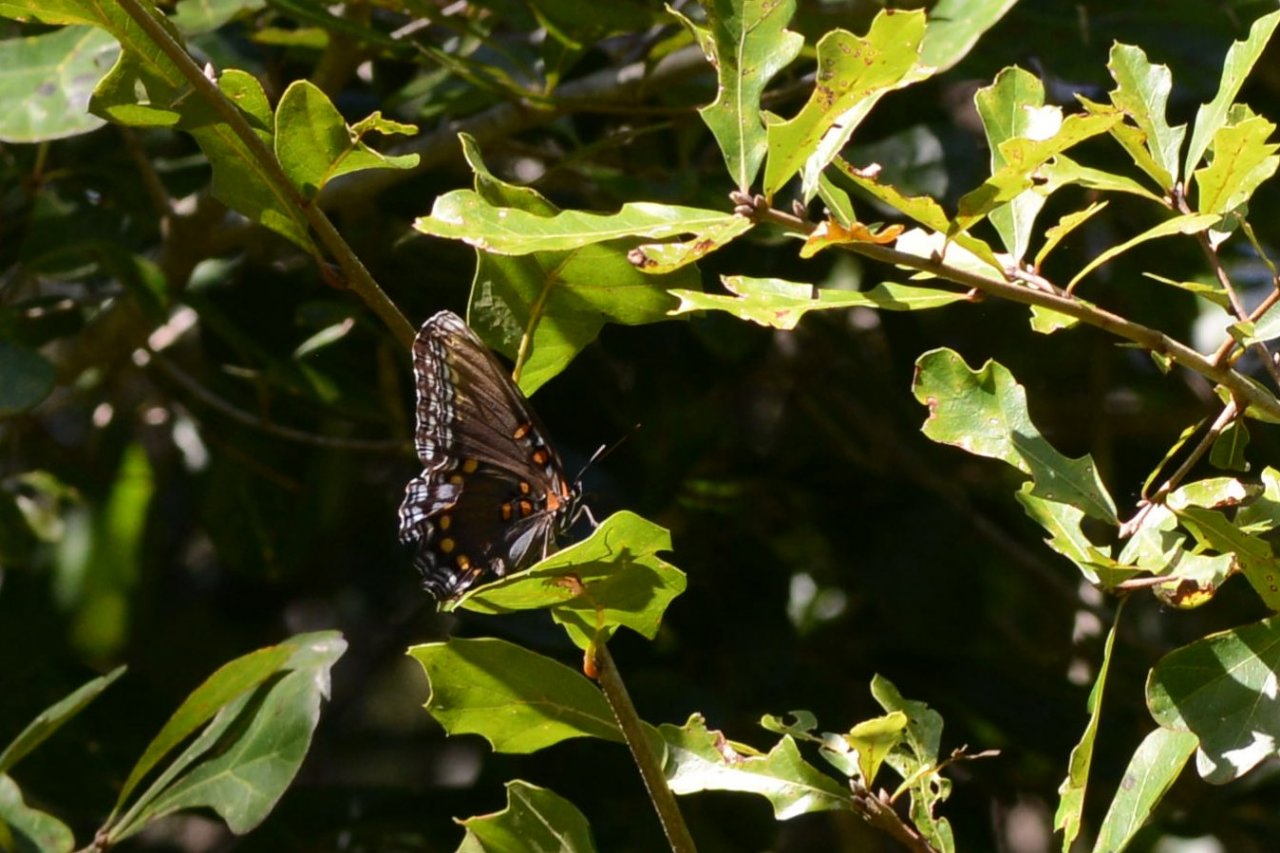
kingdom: Animalia
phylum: Arthropoda
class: Insecta
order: Lepidoptera
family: Nymphalidae
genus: Limenitis
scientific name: Limenitis astyanax
